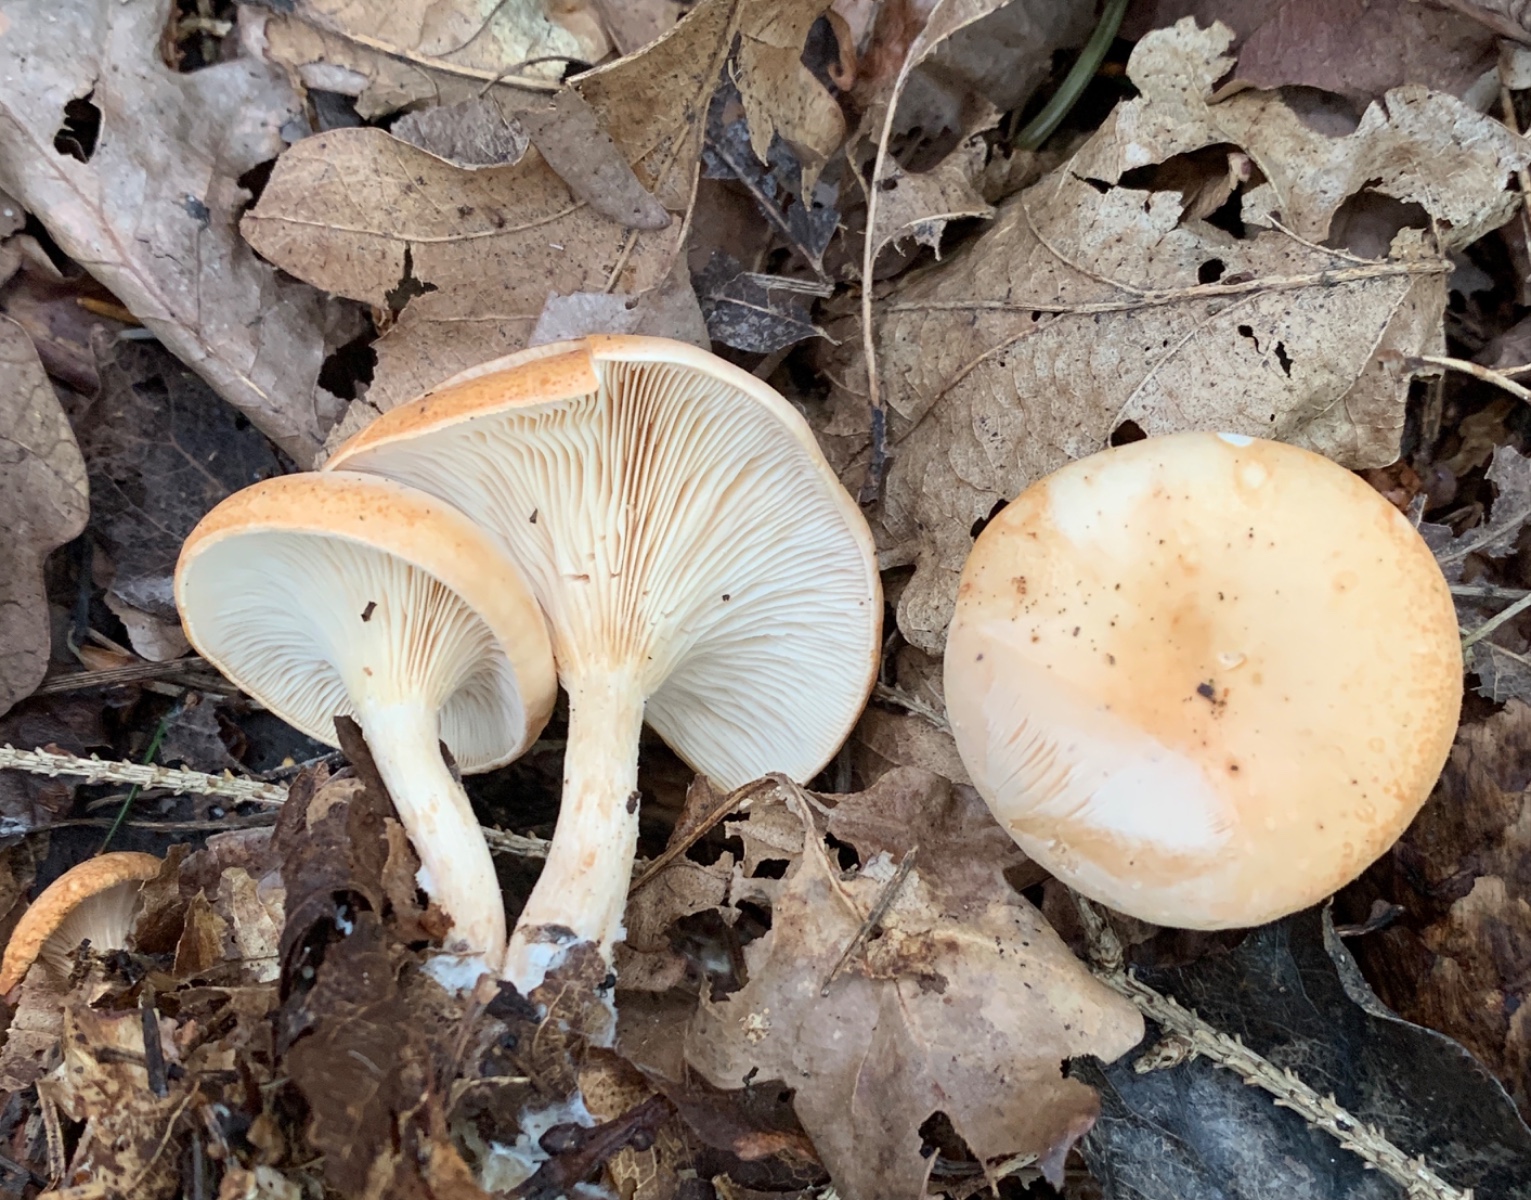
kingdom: Fungi
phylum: Basidiomycota
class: Agaricomycetes
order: Agaricales
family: Tricholomataceae
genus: Paralepista
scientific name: Paralepista flaccida
